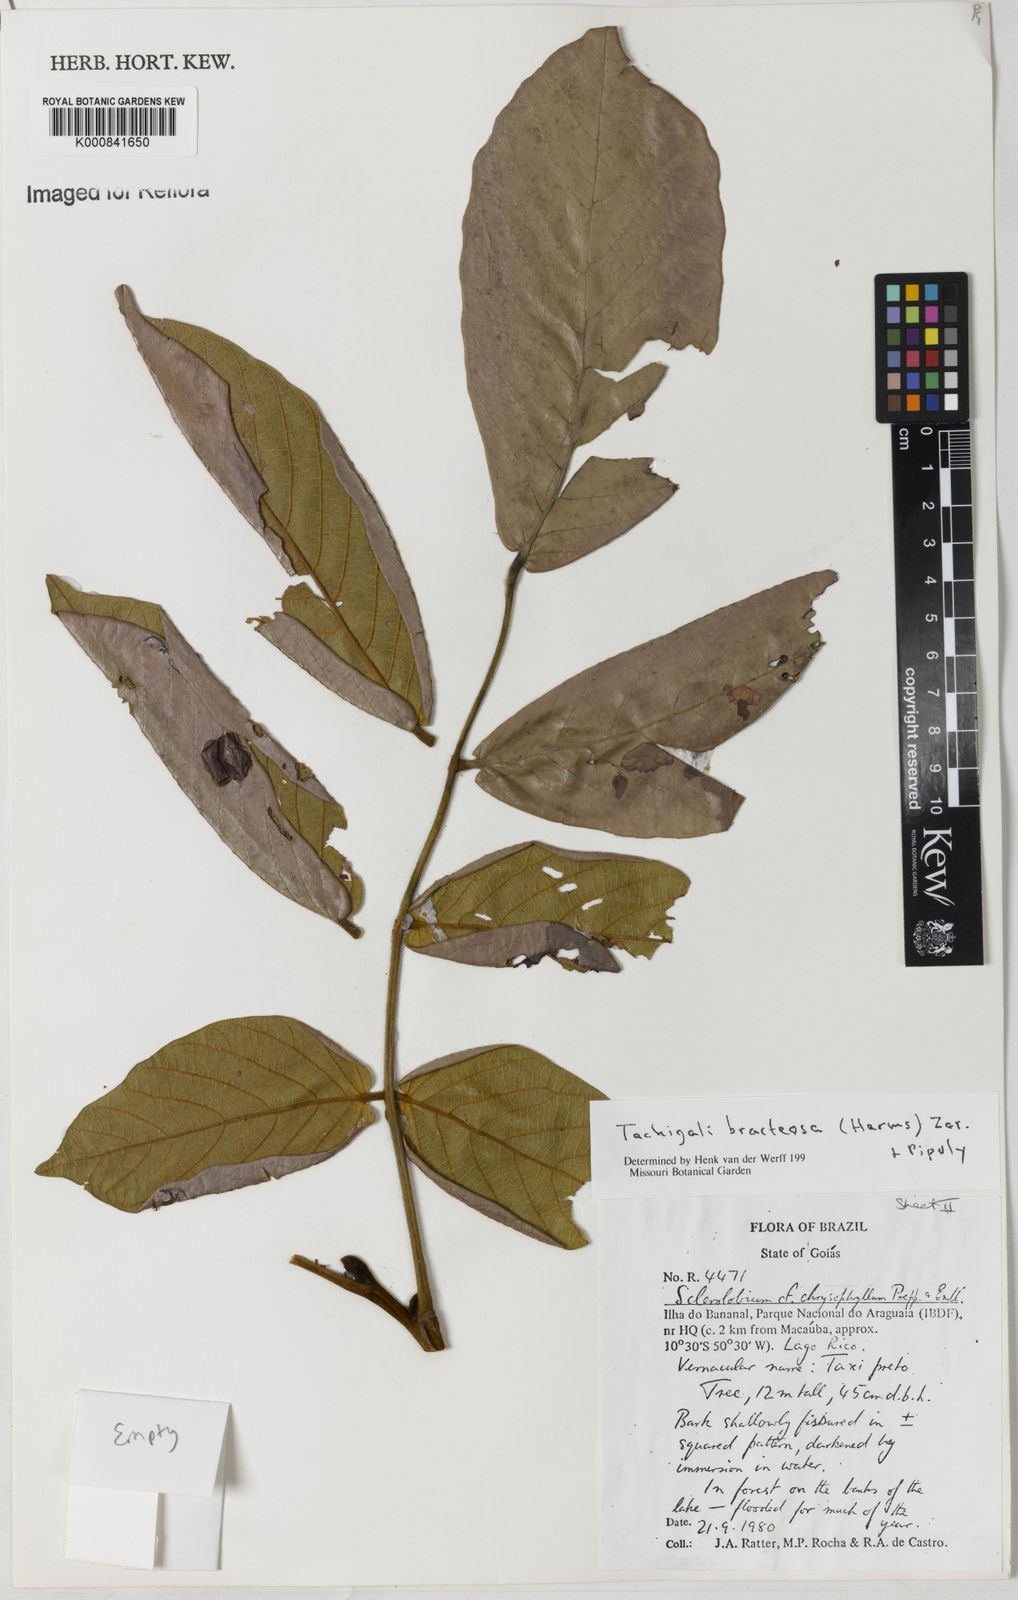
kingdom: Plantae
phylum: Tracheophyta
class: Magnoliopsida
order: Fabales
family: Fabaceae
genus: Tachigali
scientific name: Tachigali bracteosa
